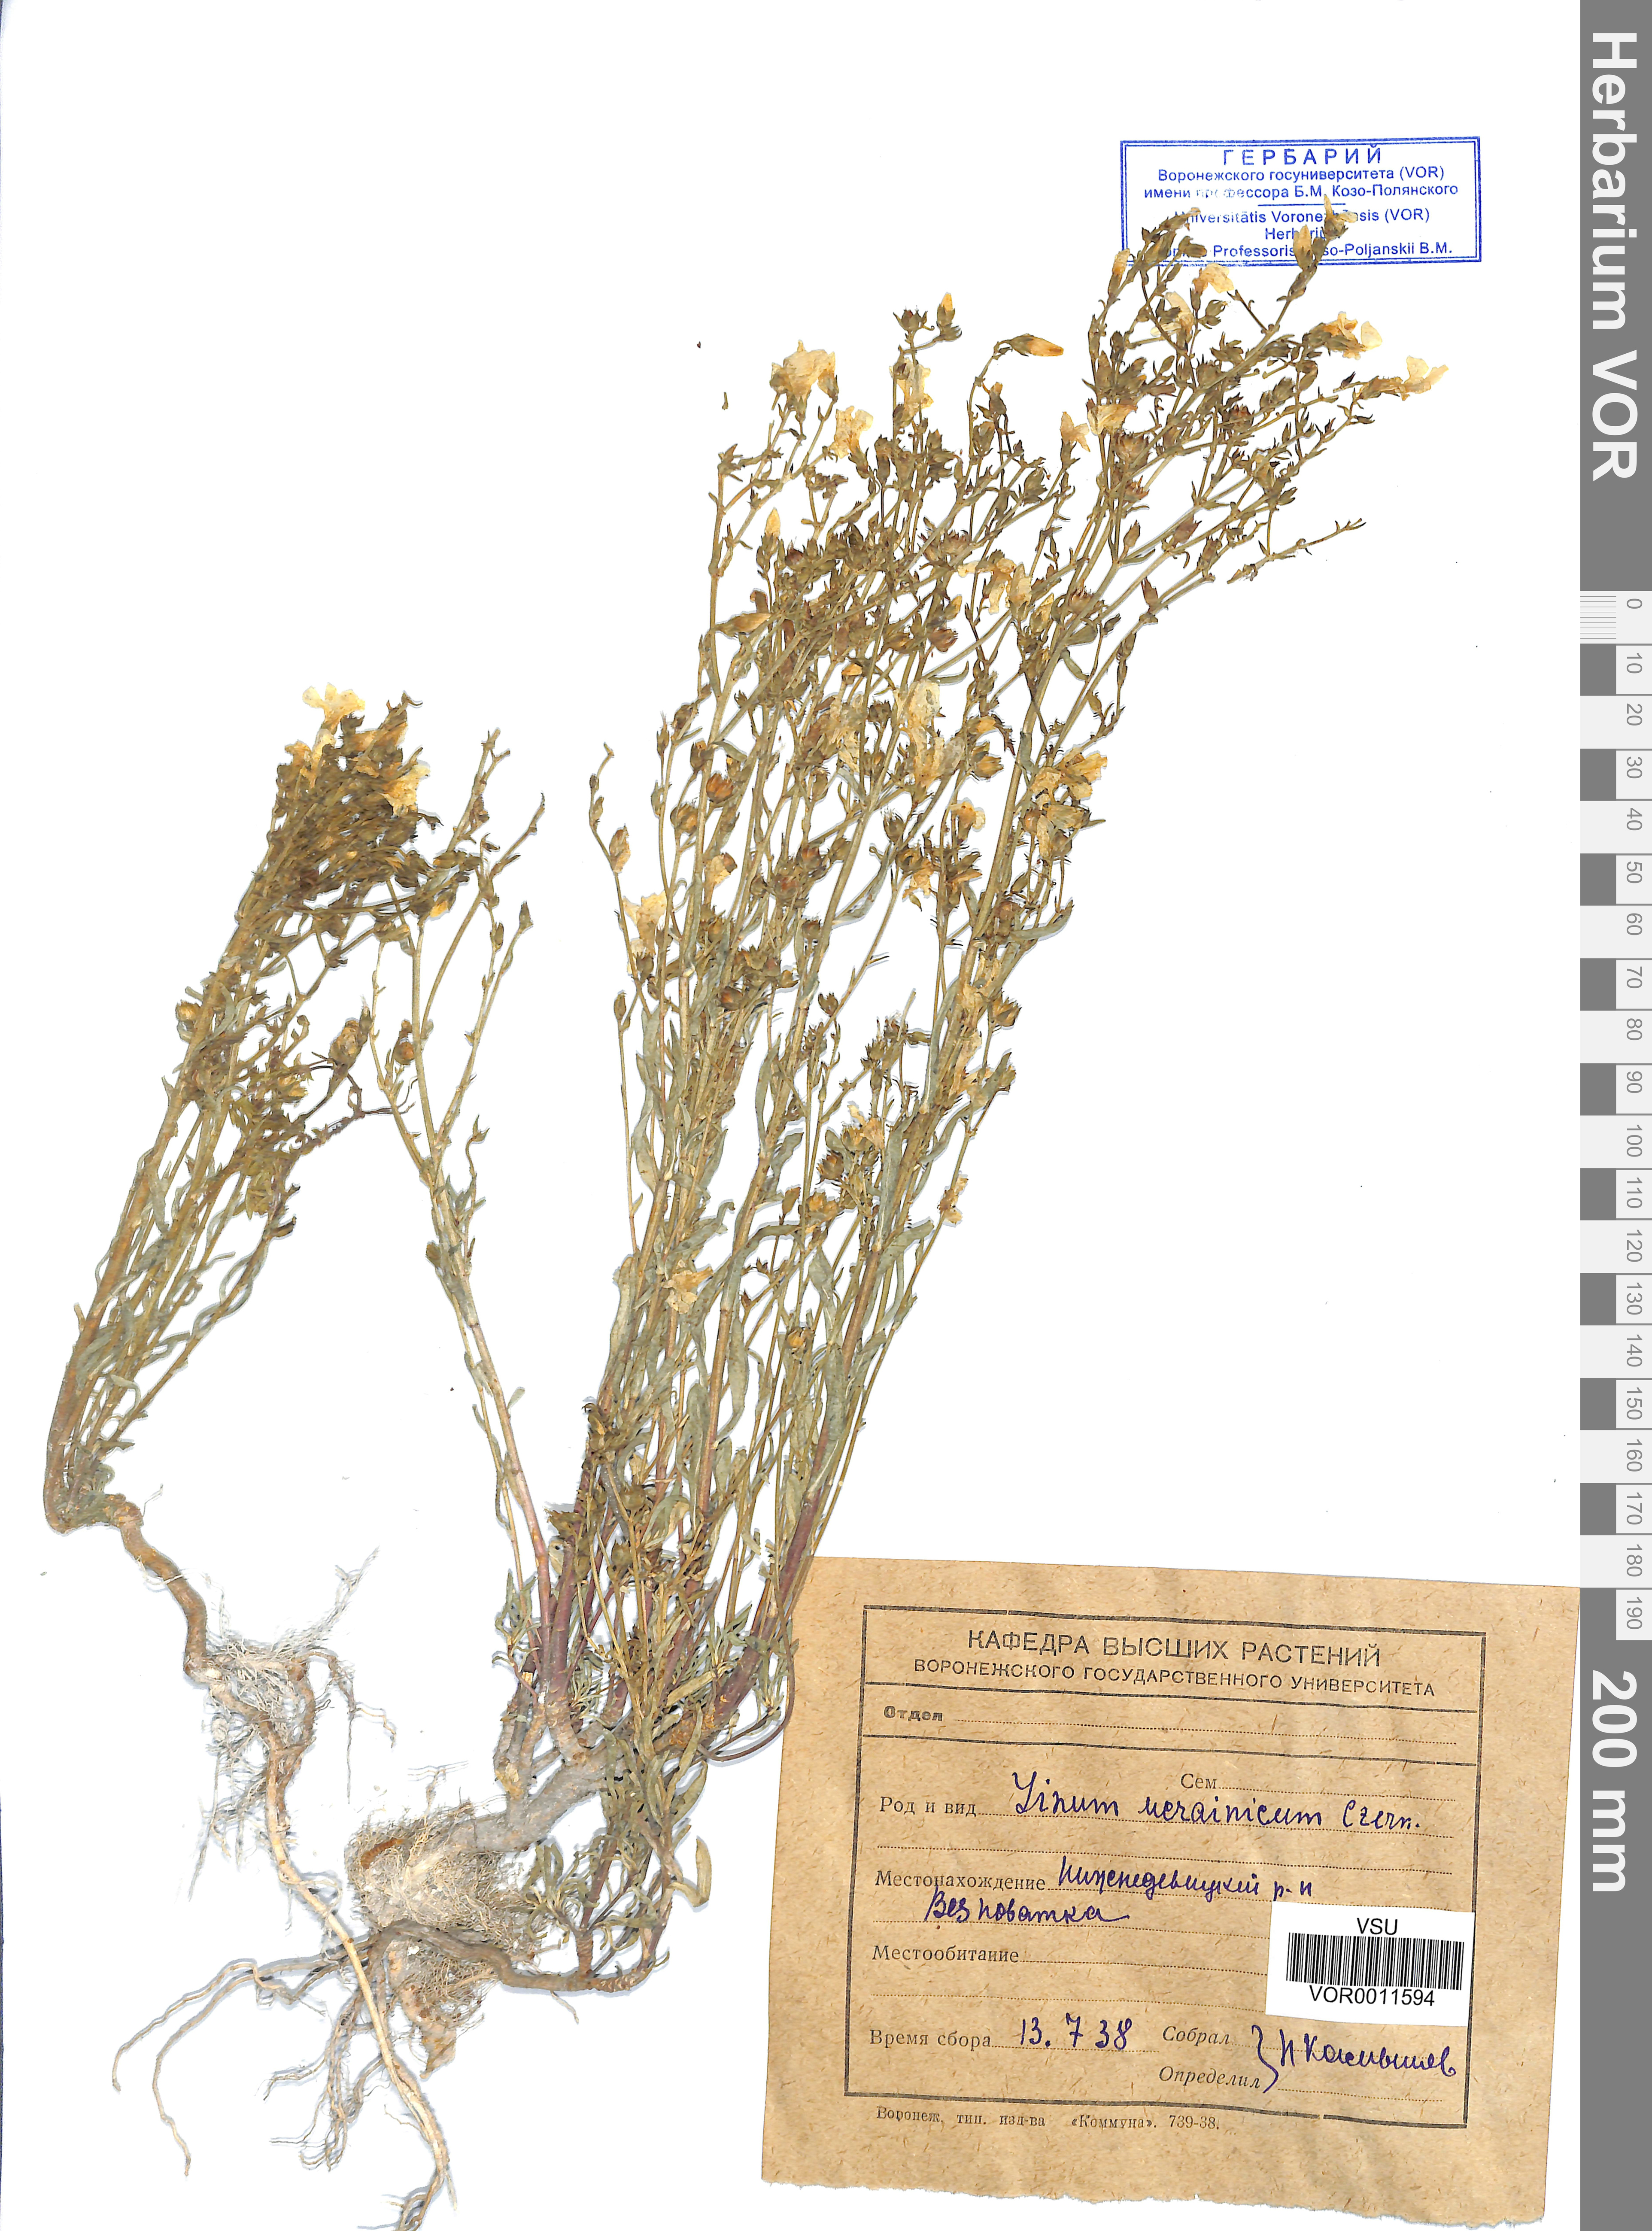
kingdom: Plantae
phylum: Tracheophyta
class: Magnoliopsida
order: Malpighiales
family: Linaceae
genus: Linum
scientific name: Linum ucranicum
